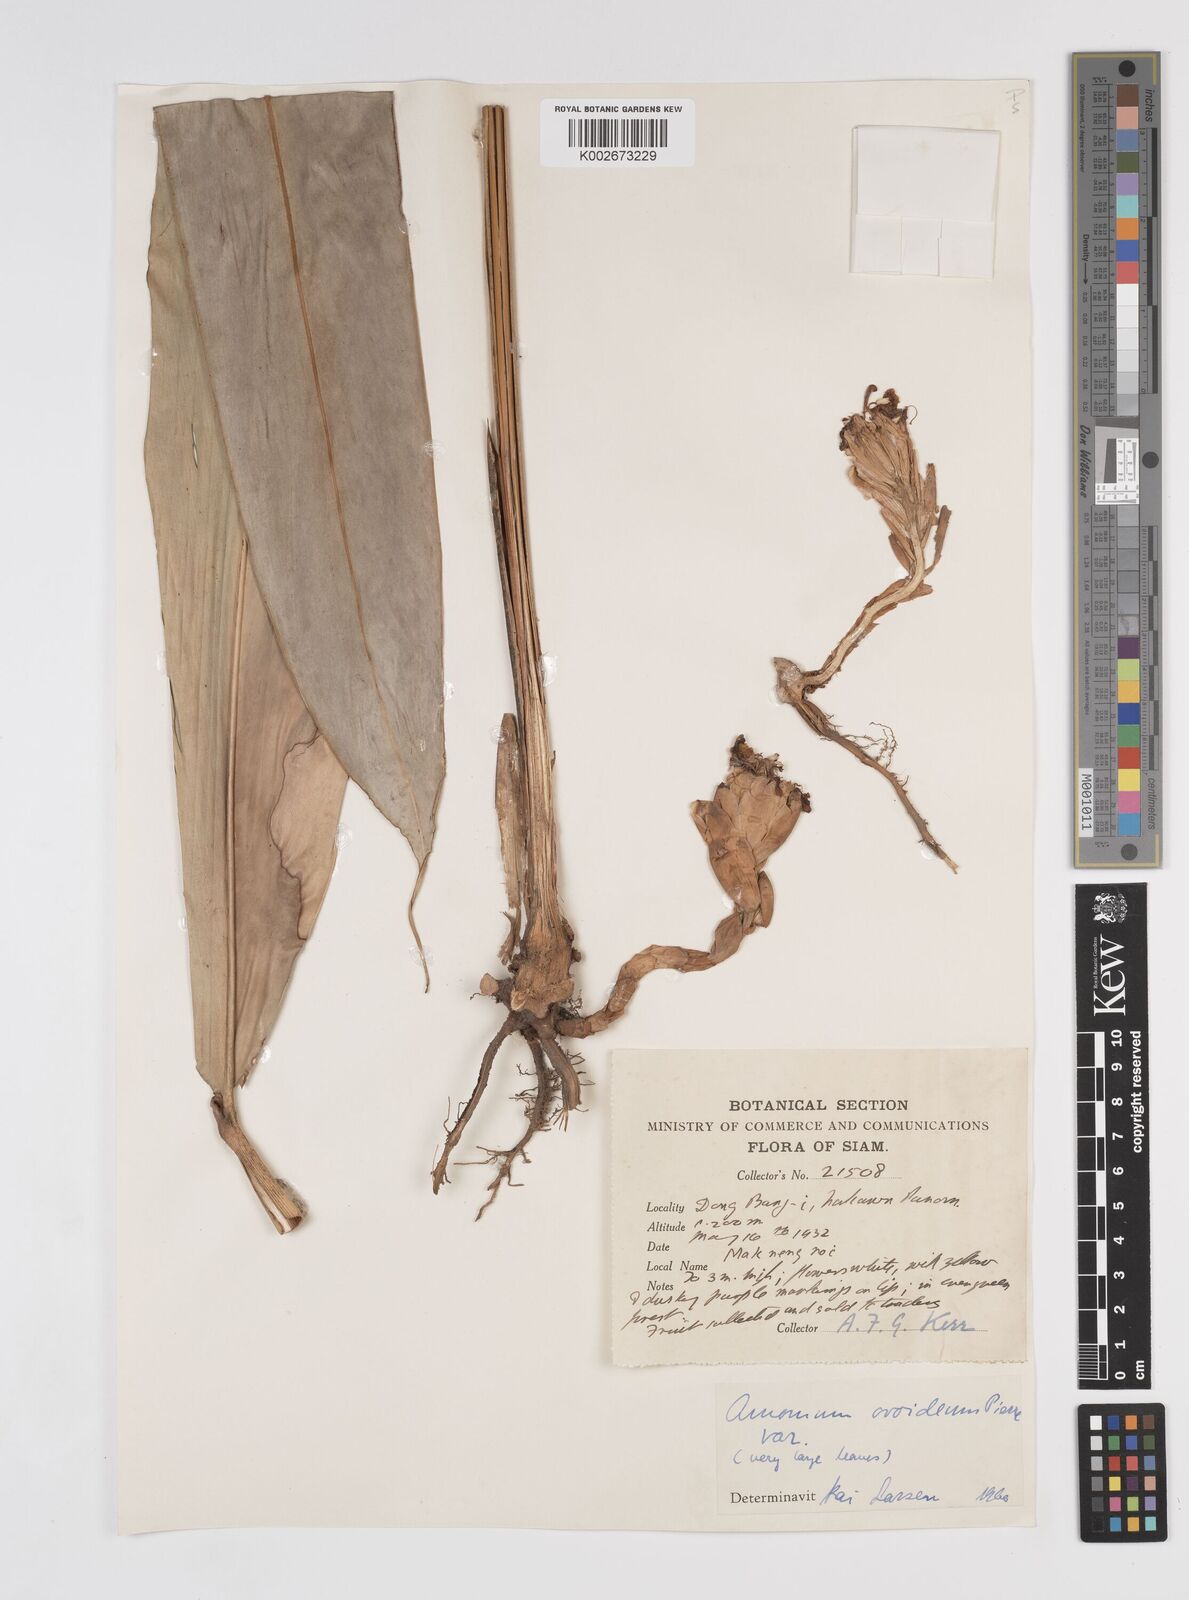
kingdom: Plantae
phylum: Tracheophyta
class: Liliopsida
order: Zingiberales
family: Zingiberaceae
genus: Wurfbainia
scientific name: Wurfbainia uliginosa
